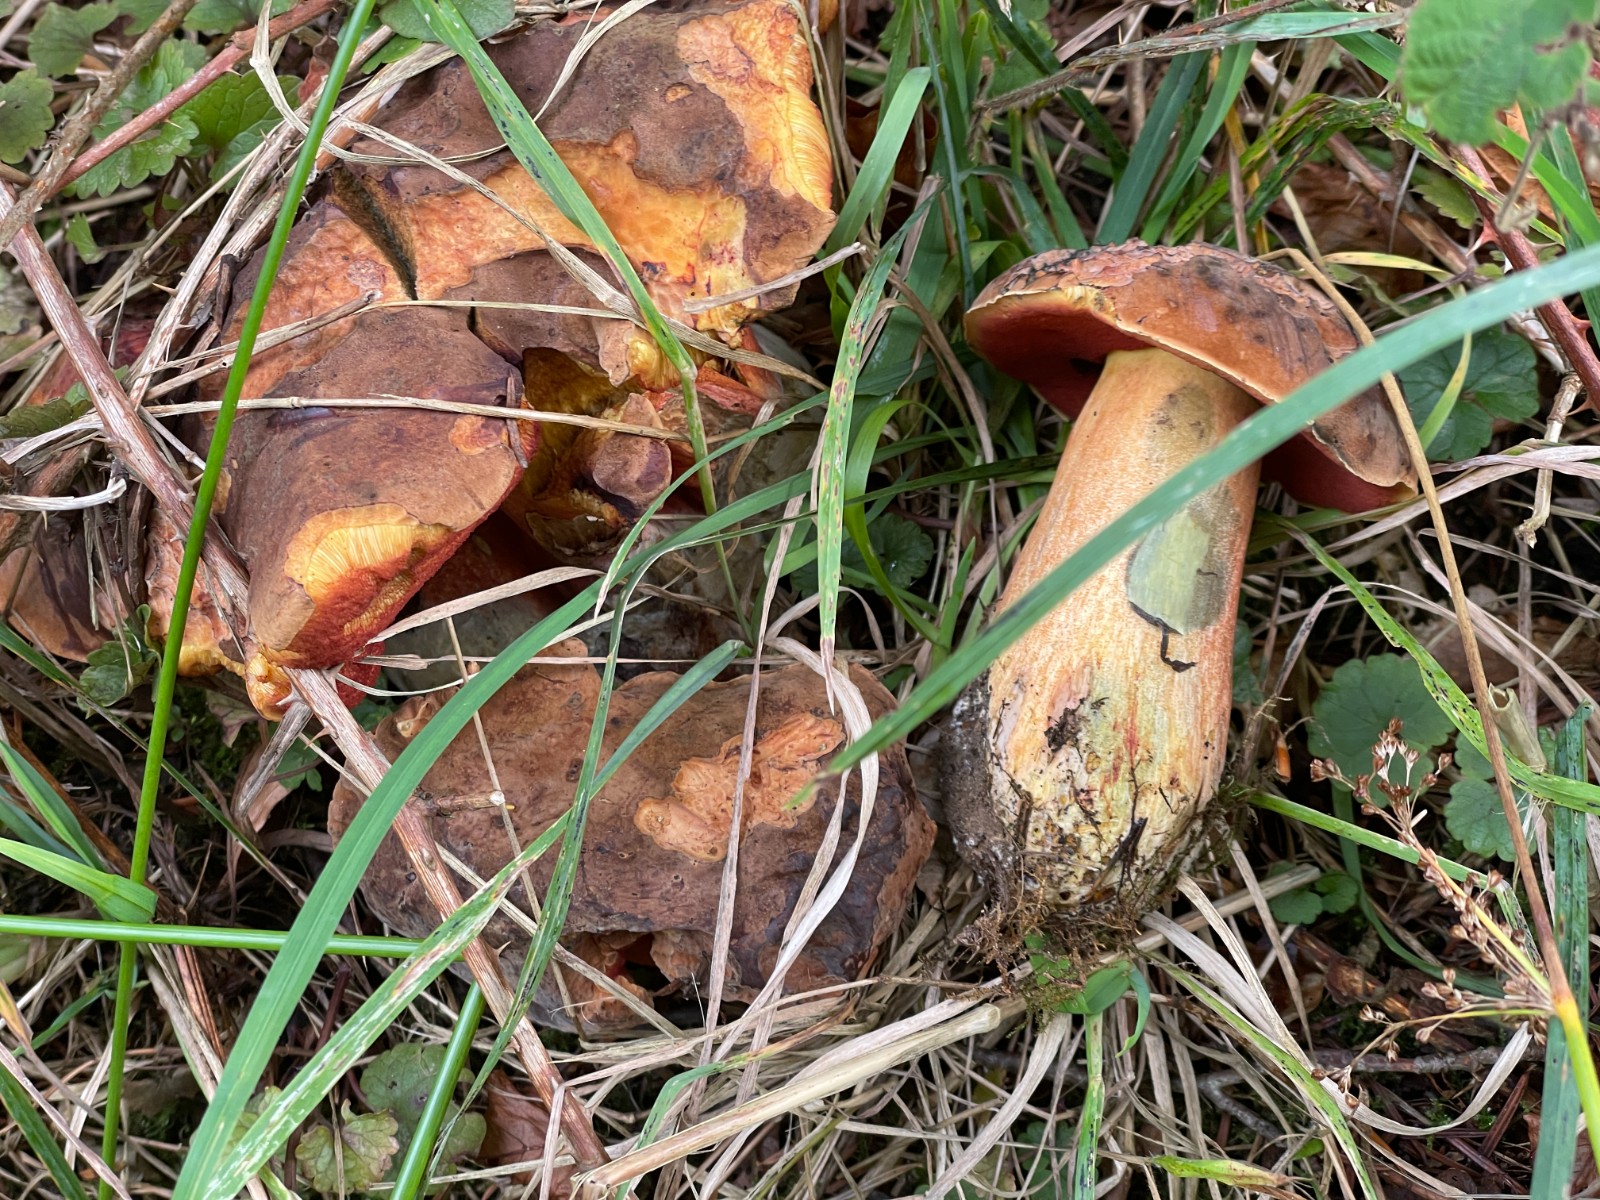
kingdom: Fungi
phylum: Basidiomycota
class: Agaricomycetes
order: Boletales
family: Boletaceae
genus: Neoboletus
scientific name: Neoboletus erythropus
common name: punktstokket indigorørhat
